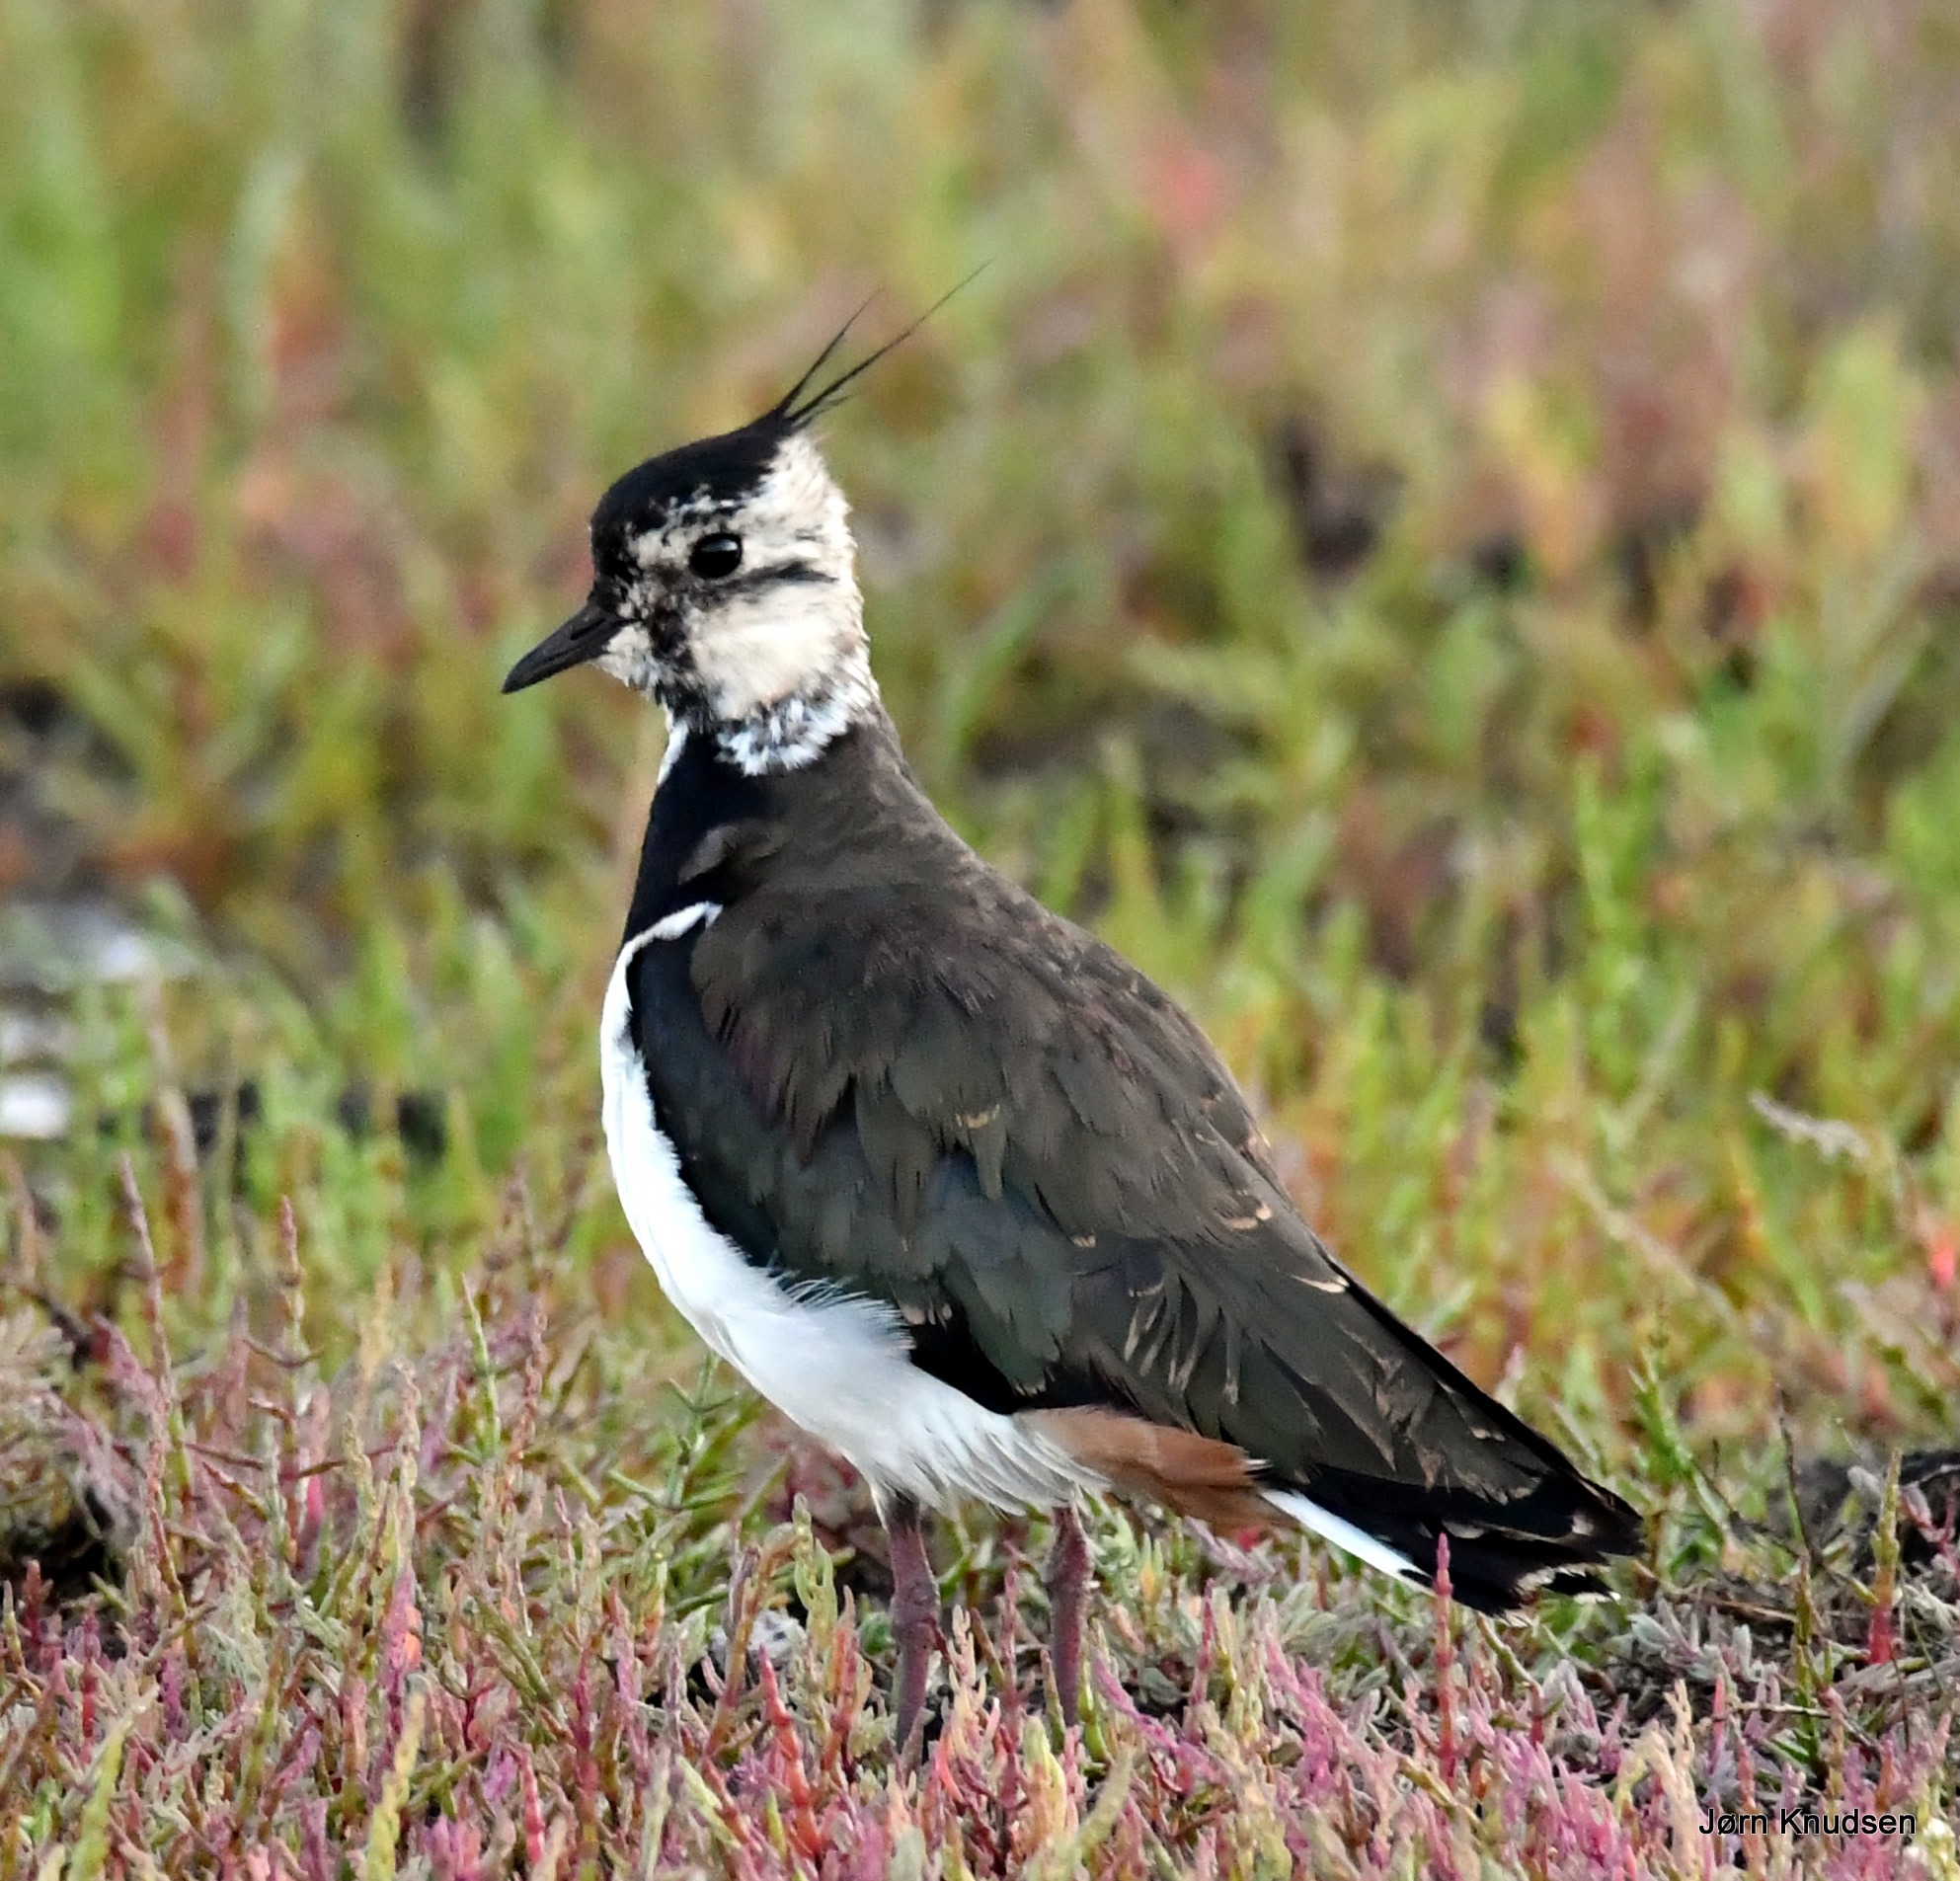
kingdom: Animalia
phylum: Chordata
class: Aves
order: Charadriiformes
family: Charadriidae
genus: Vanellus
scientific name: Vanellus vanellus
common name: Vibe
